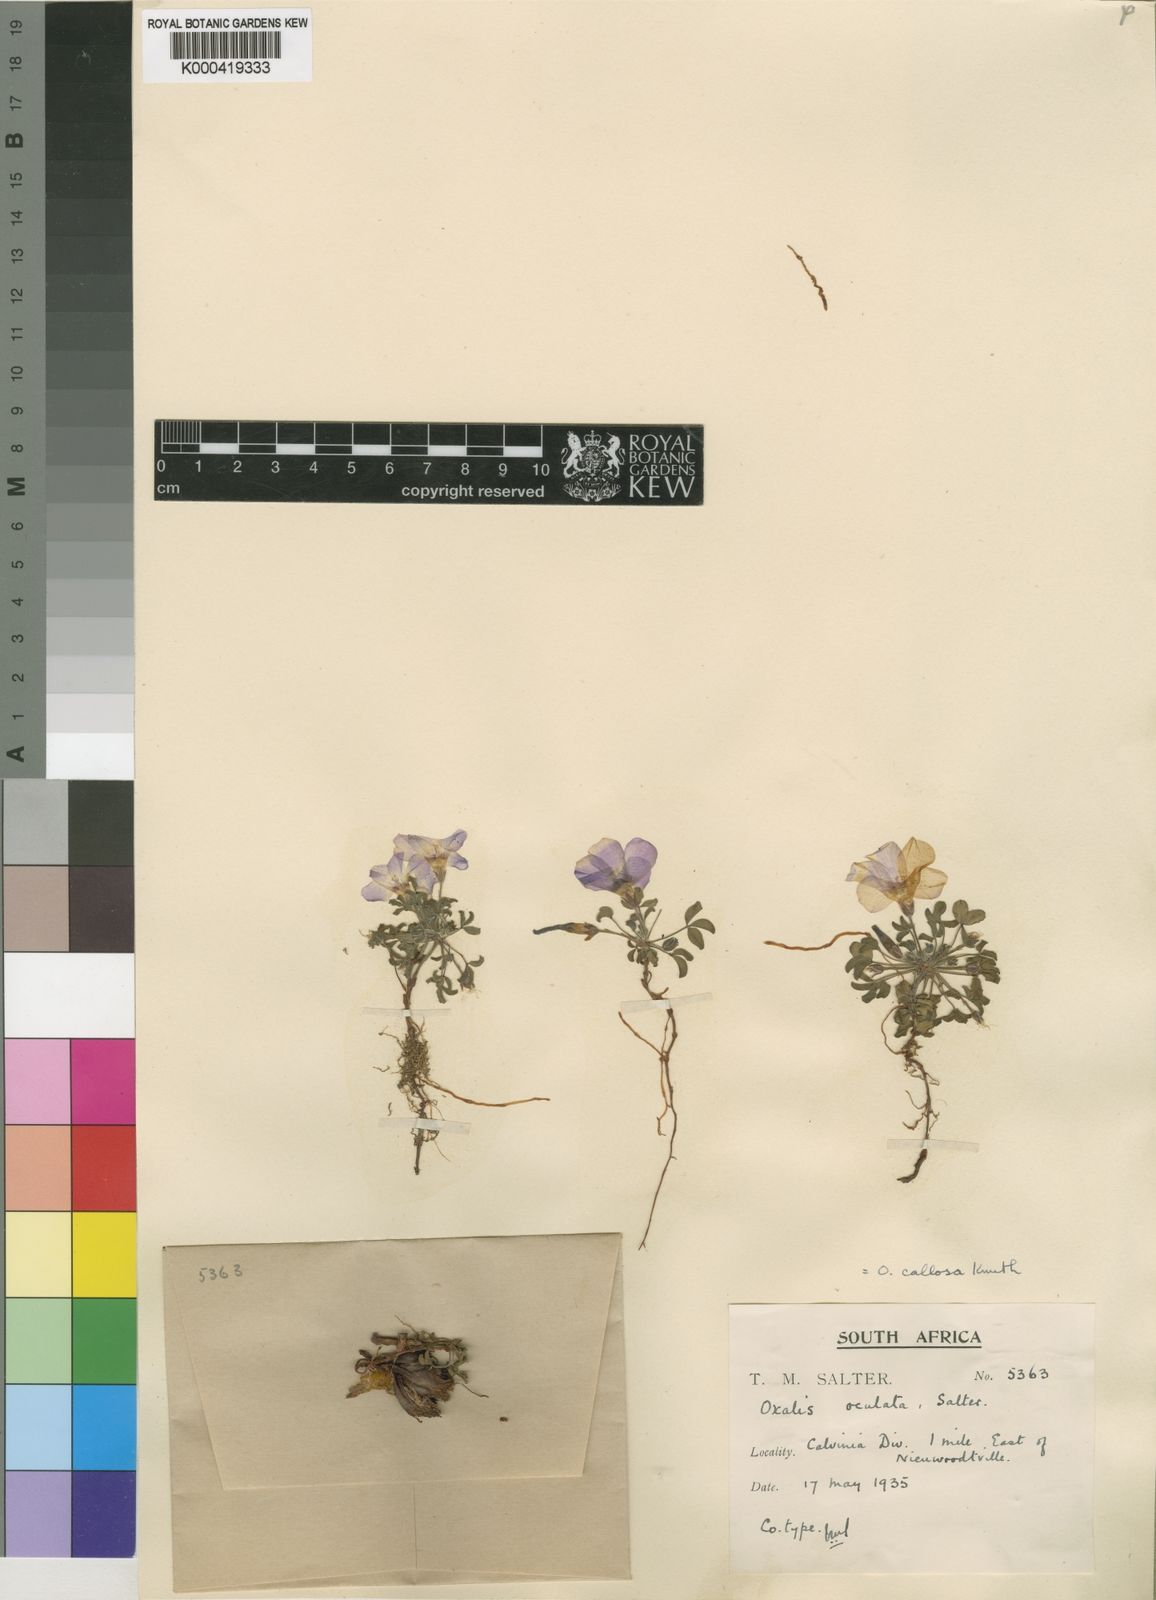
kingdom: Plantae
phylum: Tracheophyta
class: Magnoliopsida
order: Oxalidales
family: Oxalidaceae
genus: Oxalis
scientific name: Oxalis callosa
